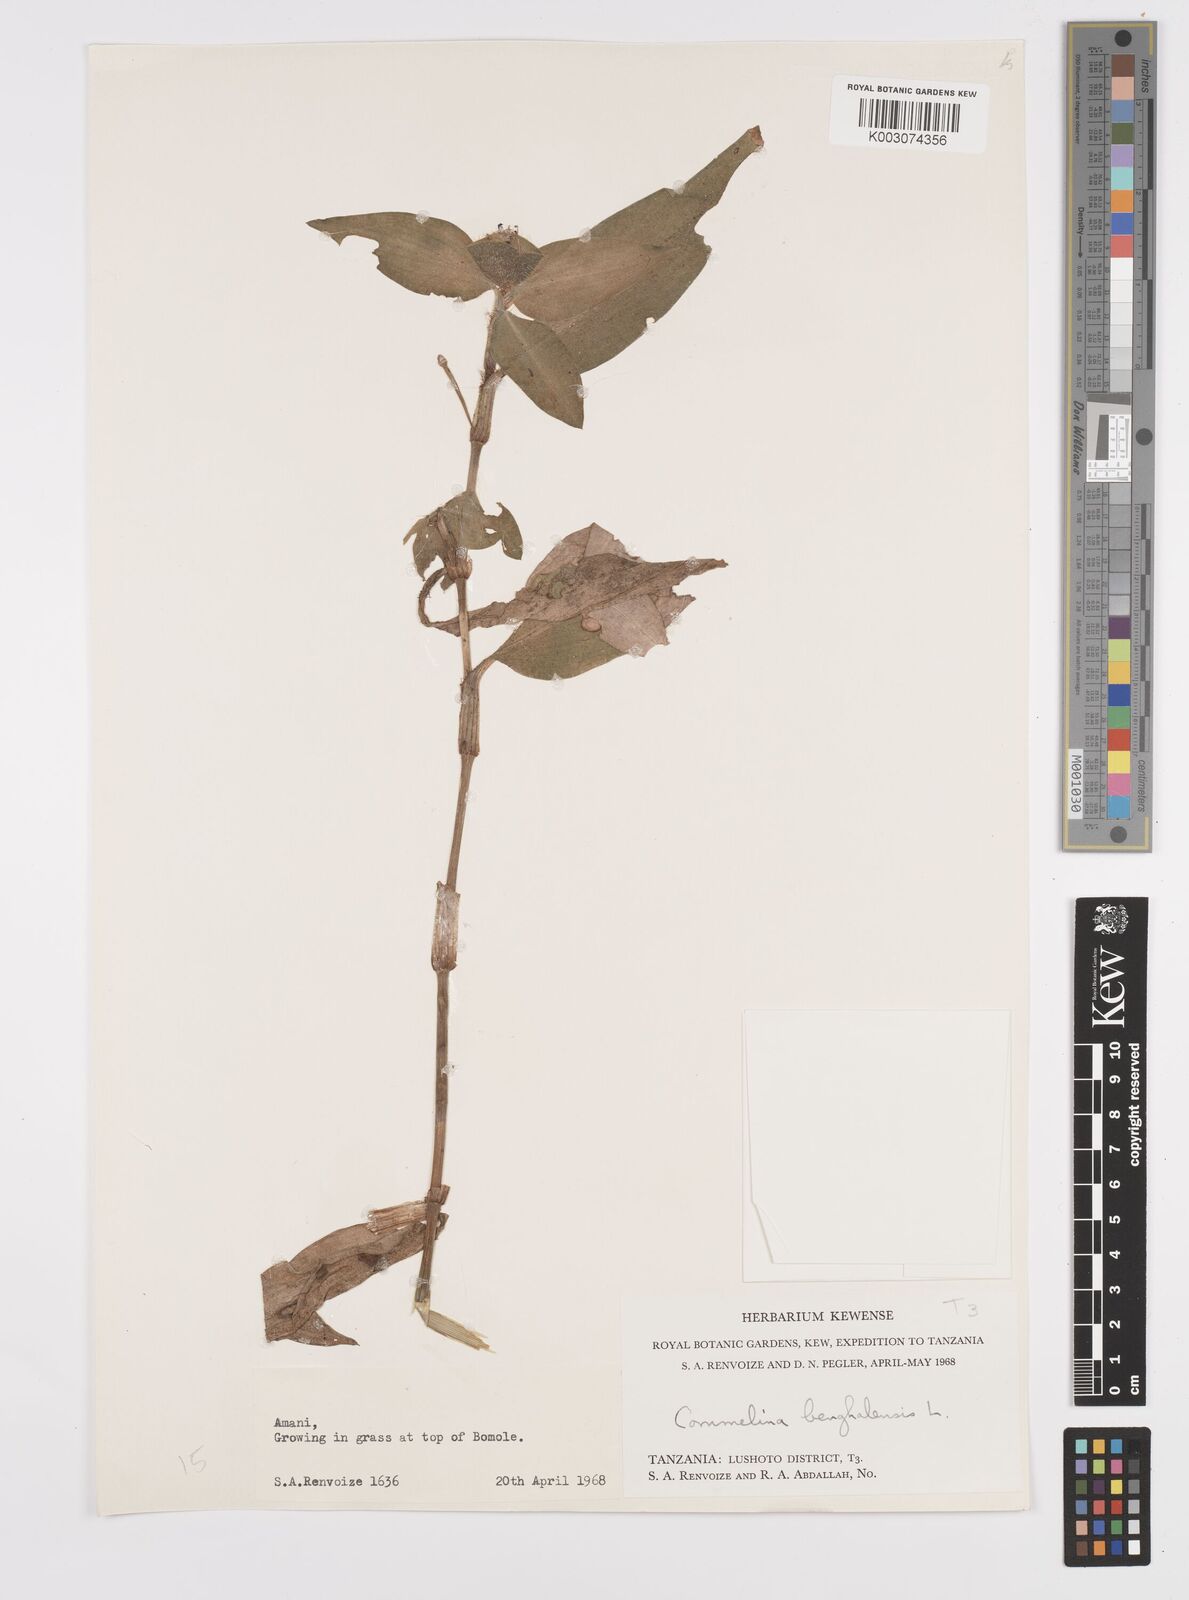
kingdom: Plantae
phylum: Tracheophyta
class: Liliopsida
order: Commelinales
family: Commelinaceae
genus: Commelina
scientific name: Commelina benghalensis
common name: Jio
